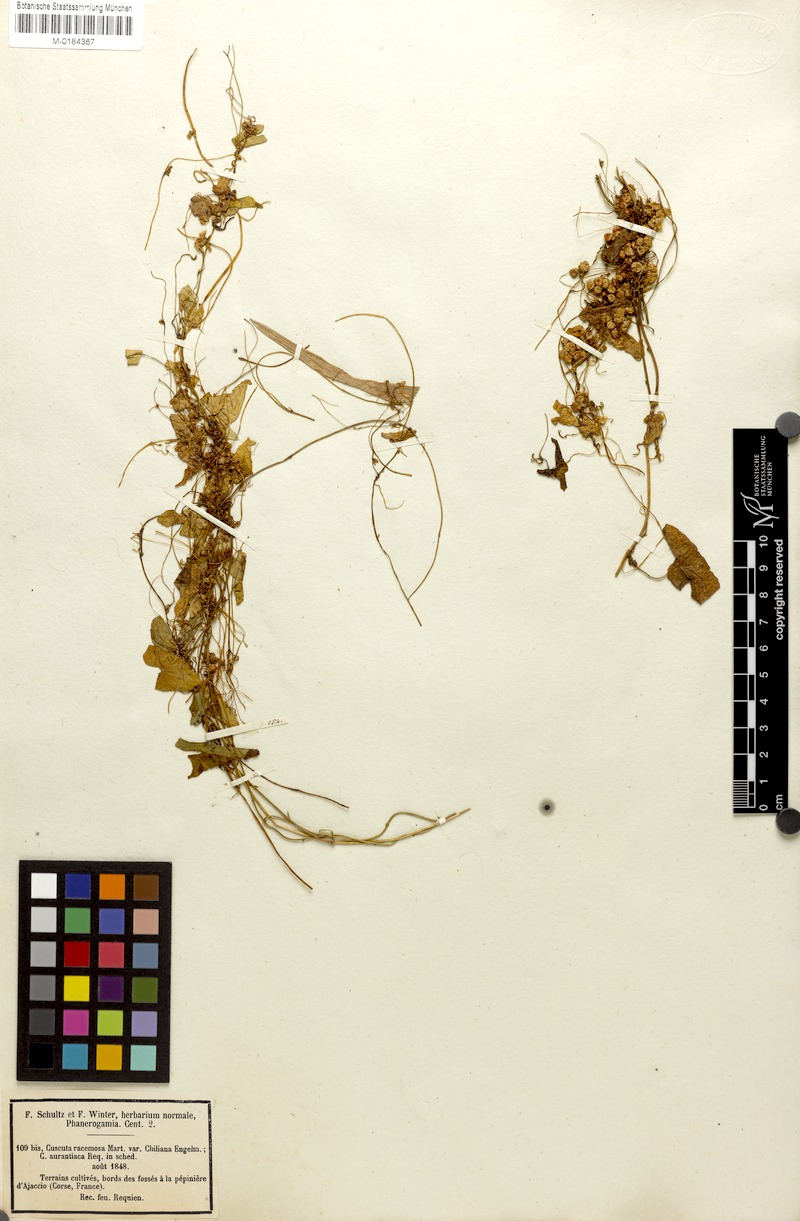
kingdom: Plantae
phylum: Tracheophyta
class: Magnoliopsida
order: Solanales
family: Convolvulaceae
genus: Cuscuta
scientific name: Cuscuta tinei
